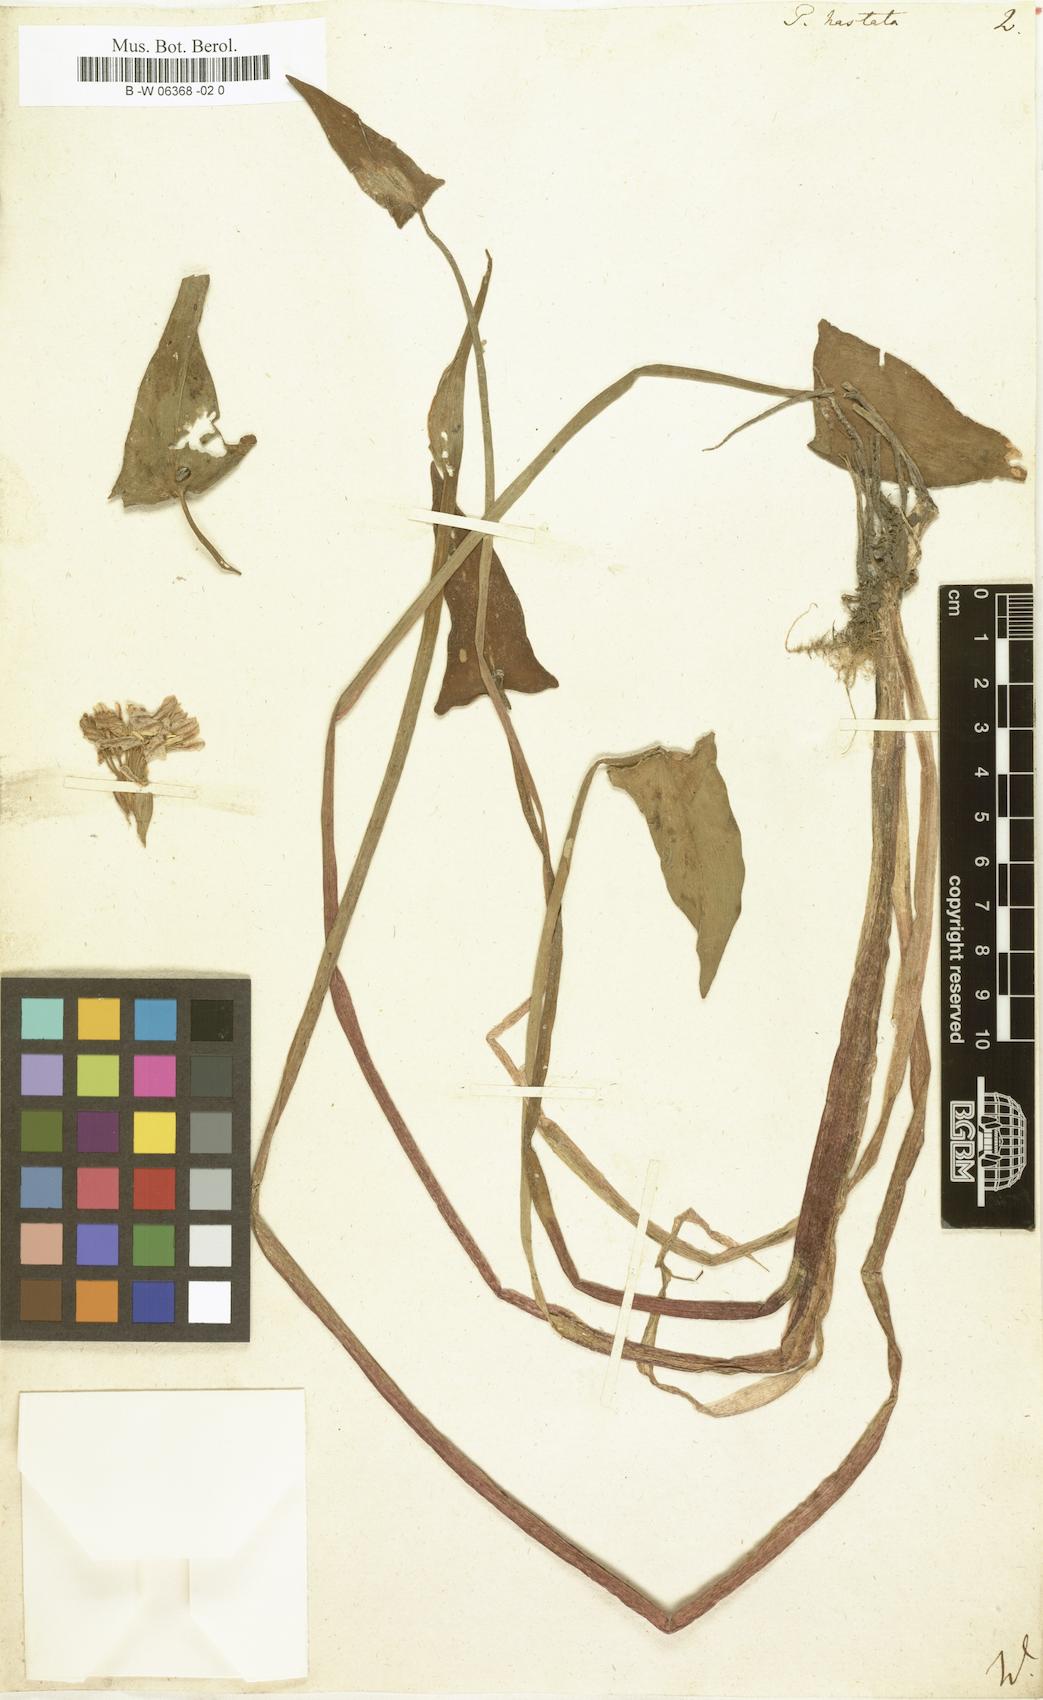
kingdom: Plantae
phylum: Tracheophyta
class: Liliopsida
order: Commelinales
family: Pontederiaceae
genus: Pontederia
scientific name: Pontederia hastata
